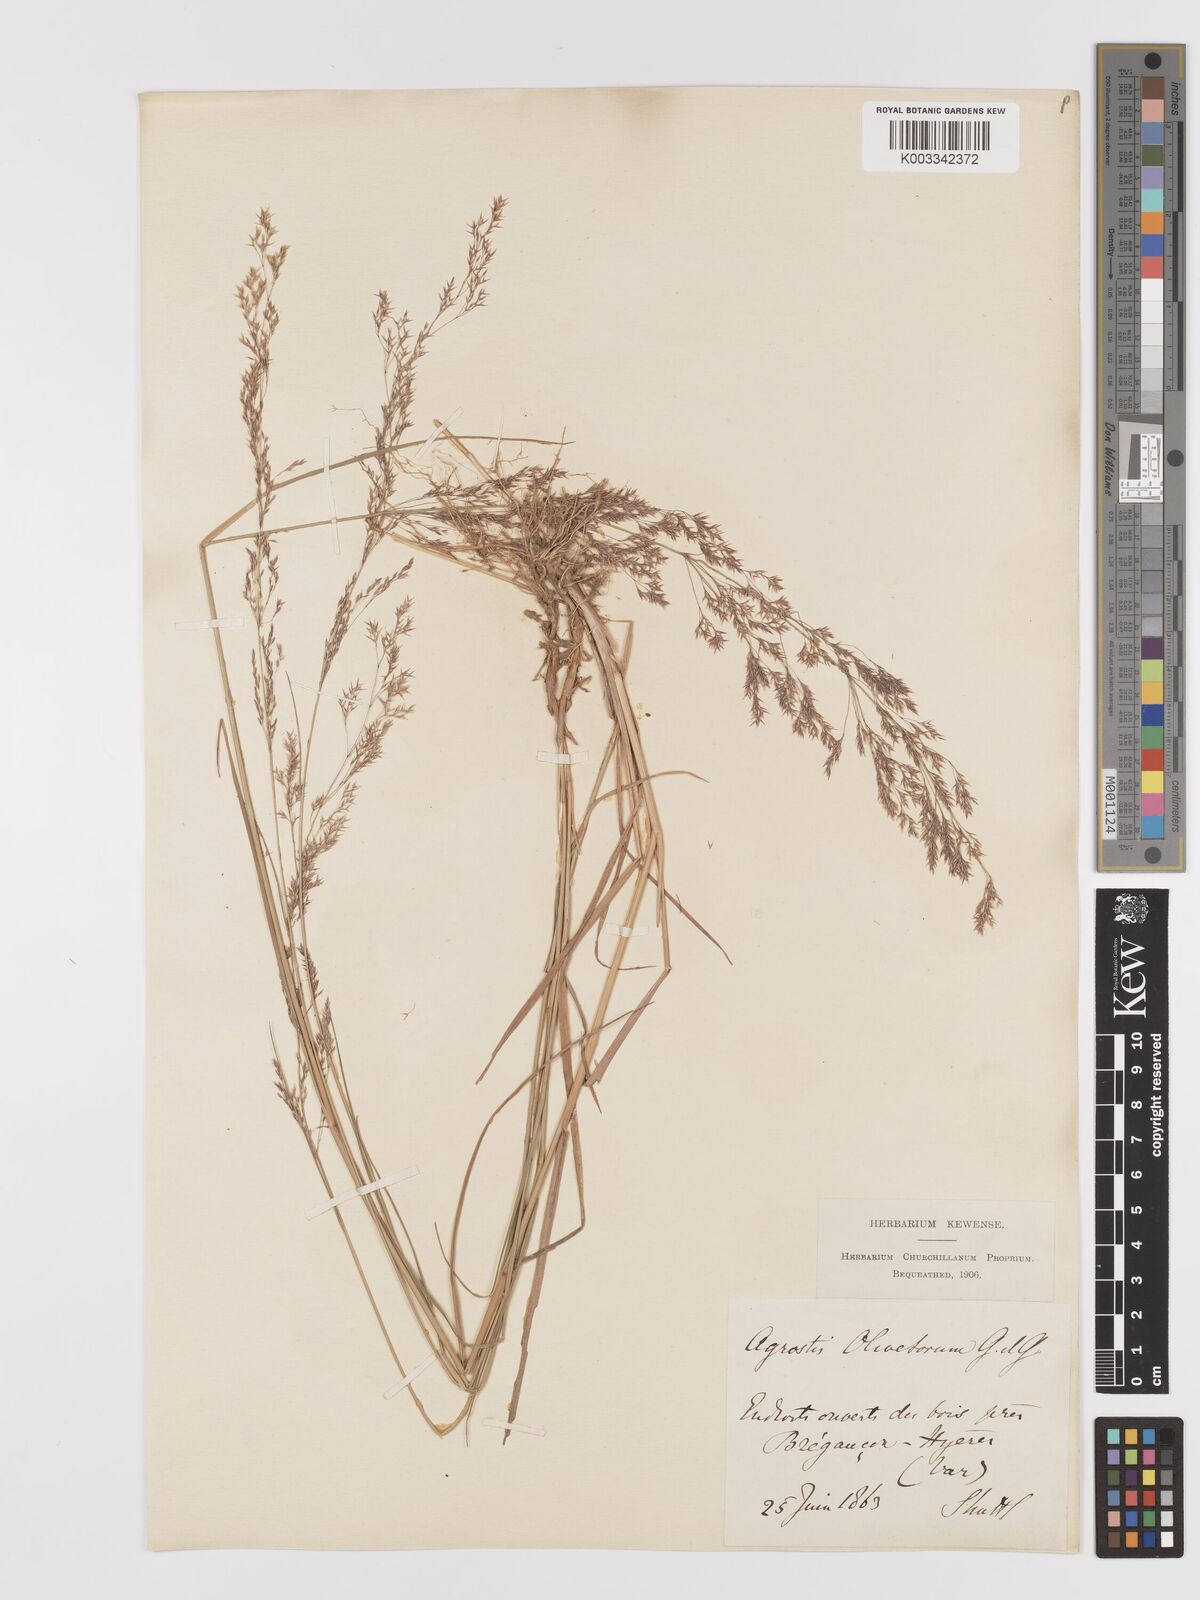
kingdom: Plantae
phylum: Tracheophyta
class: Liliopsida
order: Poales
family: Poaceae
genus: Agrostis
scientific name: Agrostis castellana
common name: Highland bent
